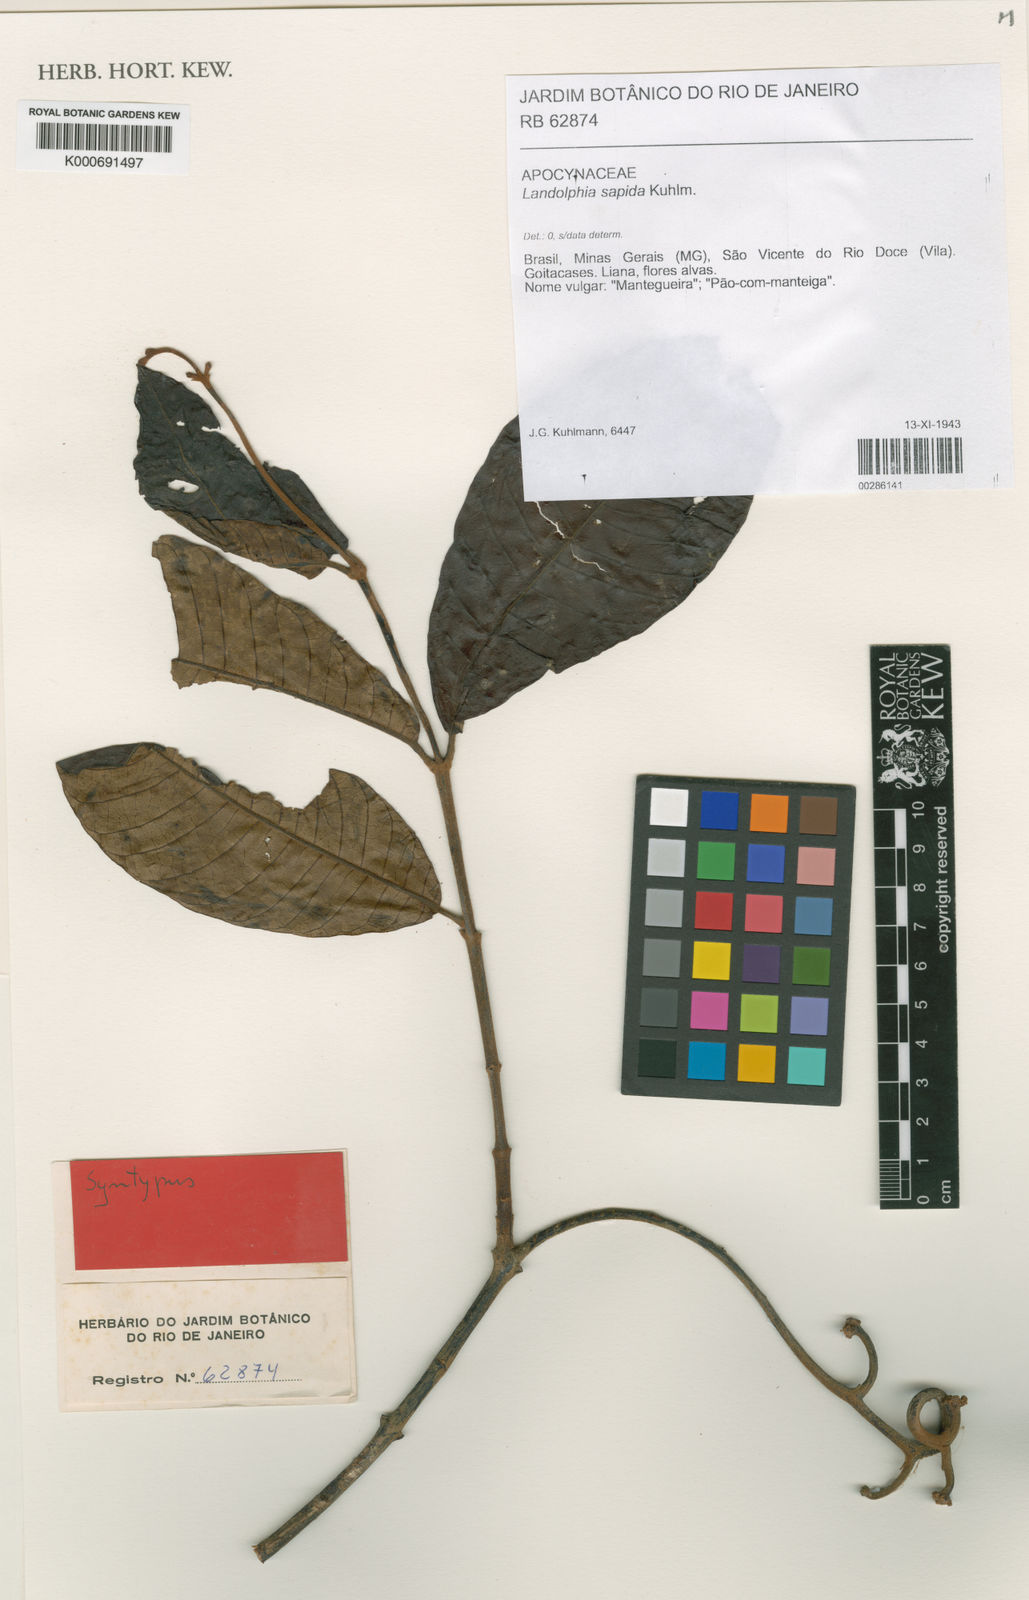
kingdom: Plantae
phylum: Tracheophyta
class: Magnoliopsida
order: Gentianales
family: Apocynaceae
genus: Pacouria
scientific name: Pacouria boliviensis
